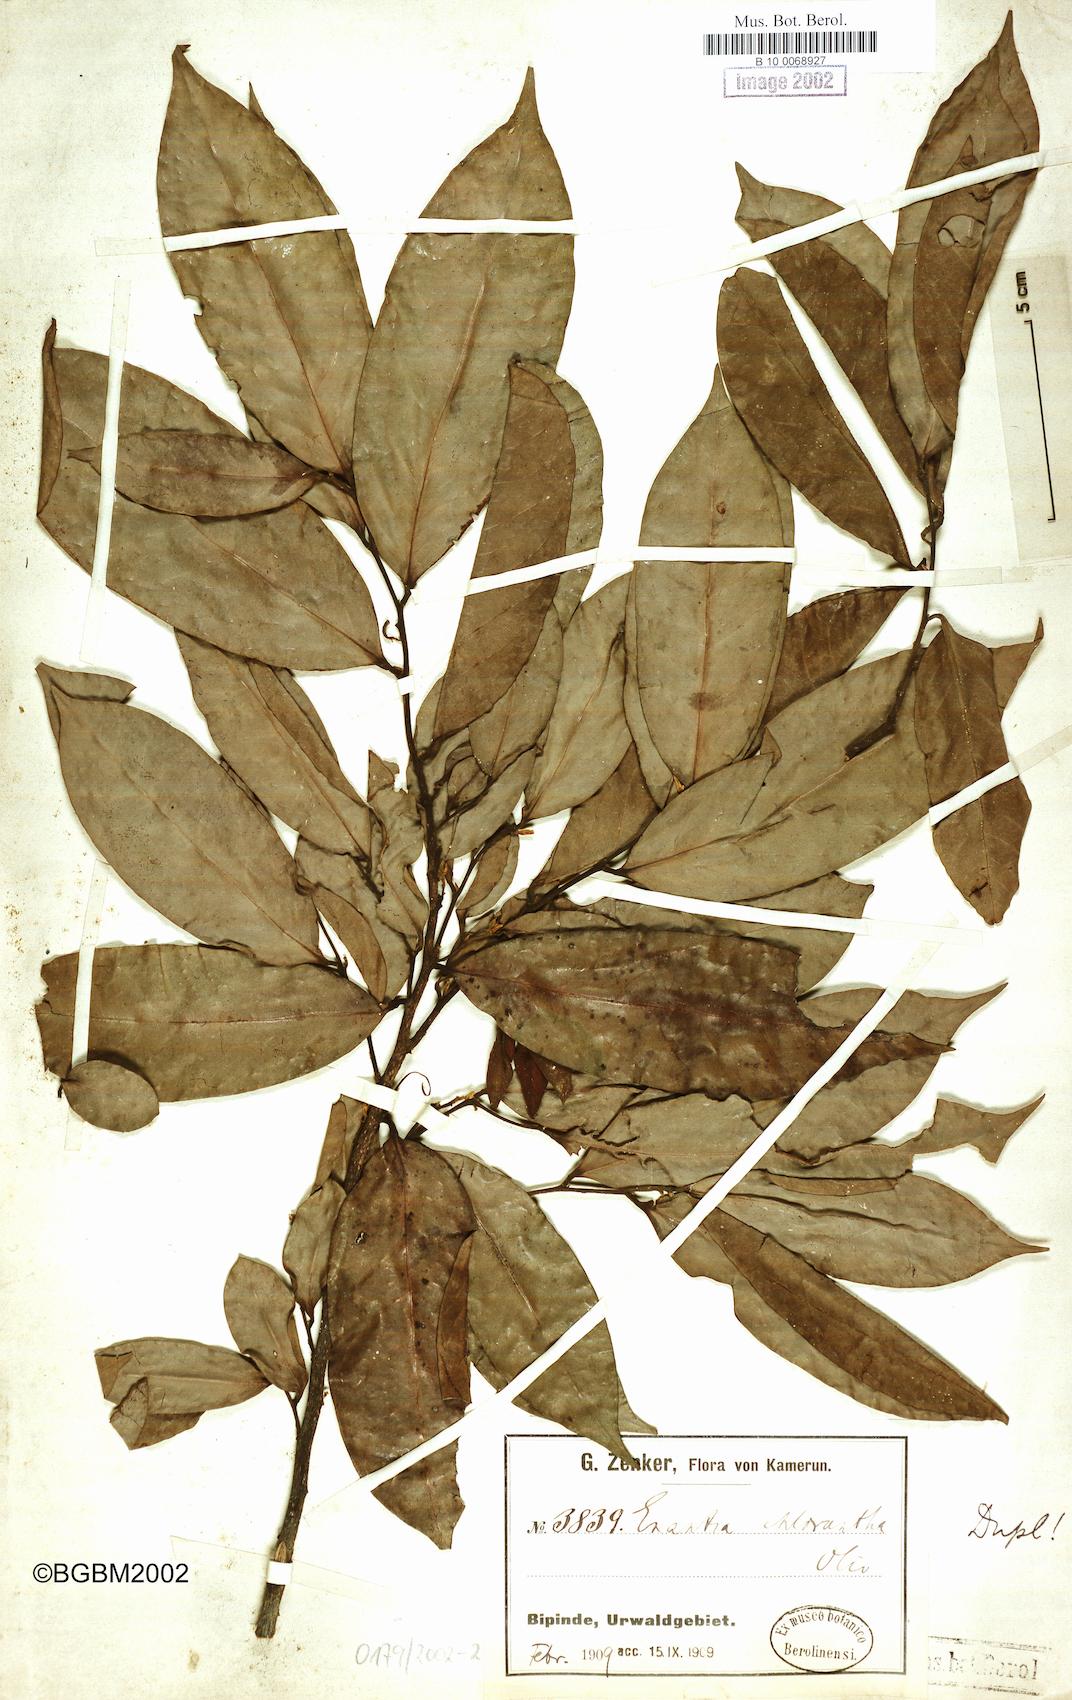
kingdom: Plantae
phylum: Tracheophyta
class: Magnoliopsida
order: Magnoliales
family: Annonaceae
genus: Annickia
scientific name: Annickia chlorantha
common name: African yellowwood
